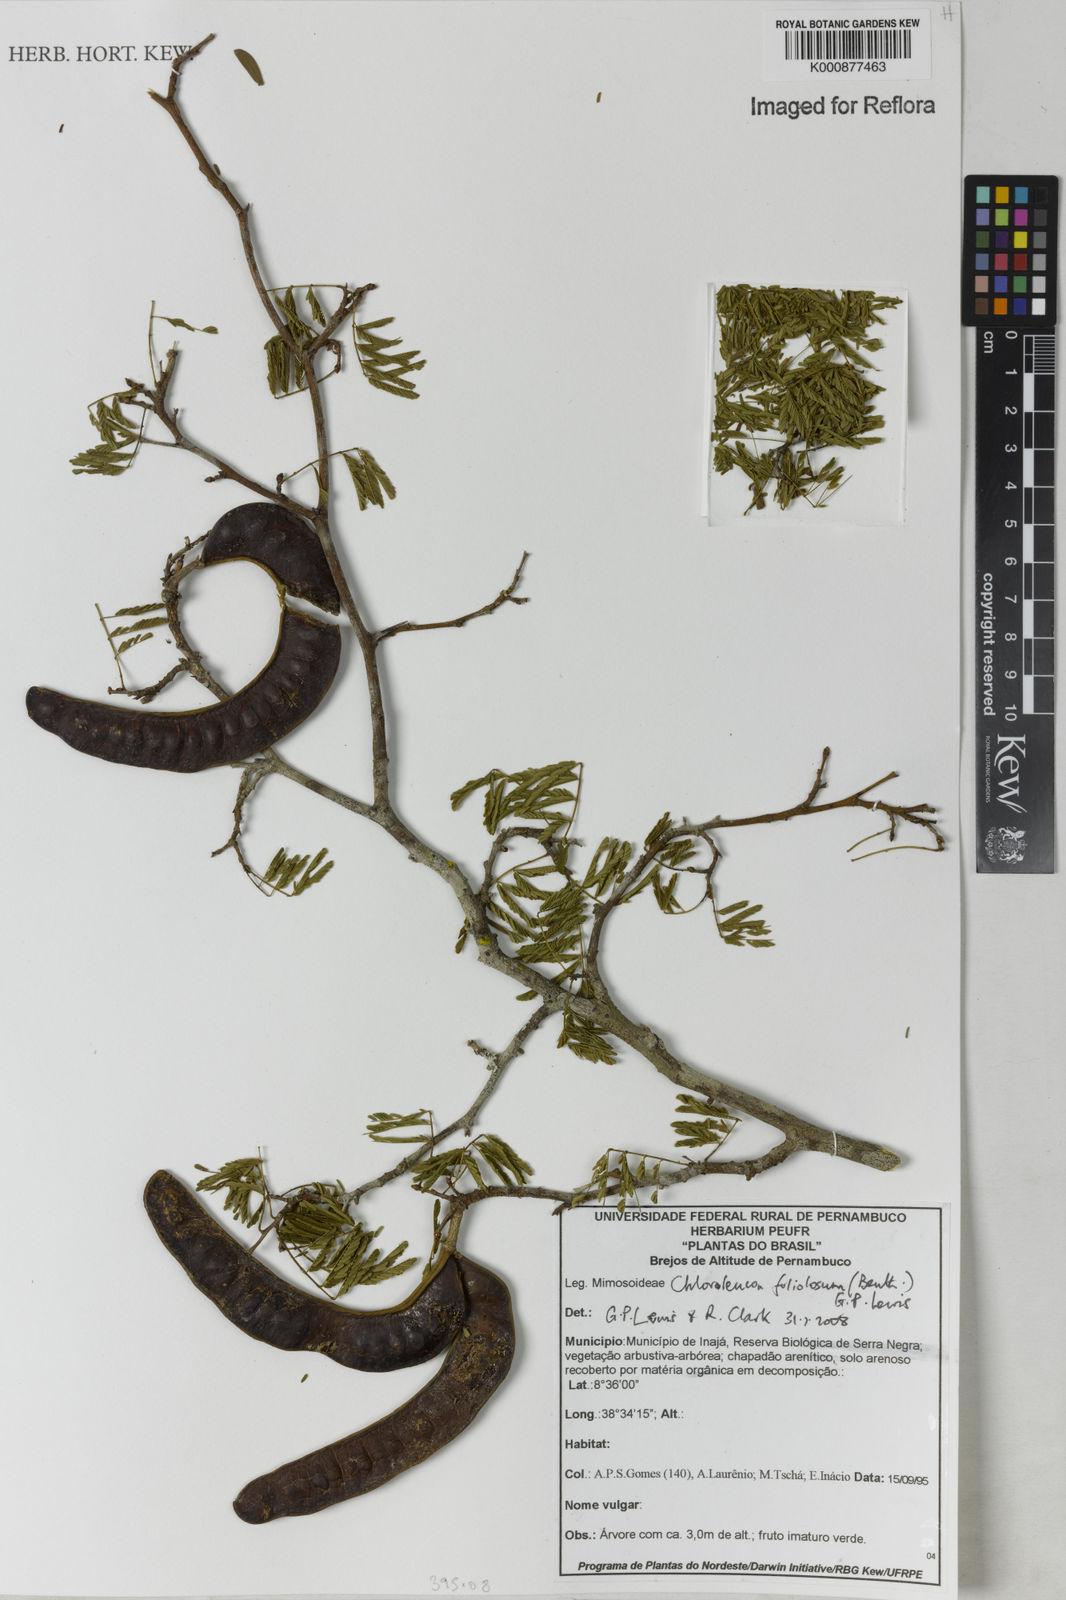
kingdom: Plantae
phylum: Tracheophyta
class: Magnoliopsida
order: Fabales
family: Fabaceae
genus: Chloroleucon
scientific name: Chloroleucon
